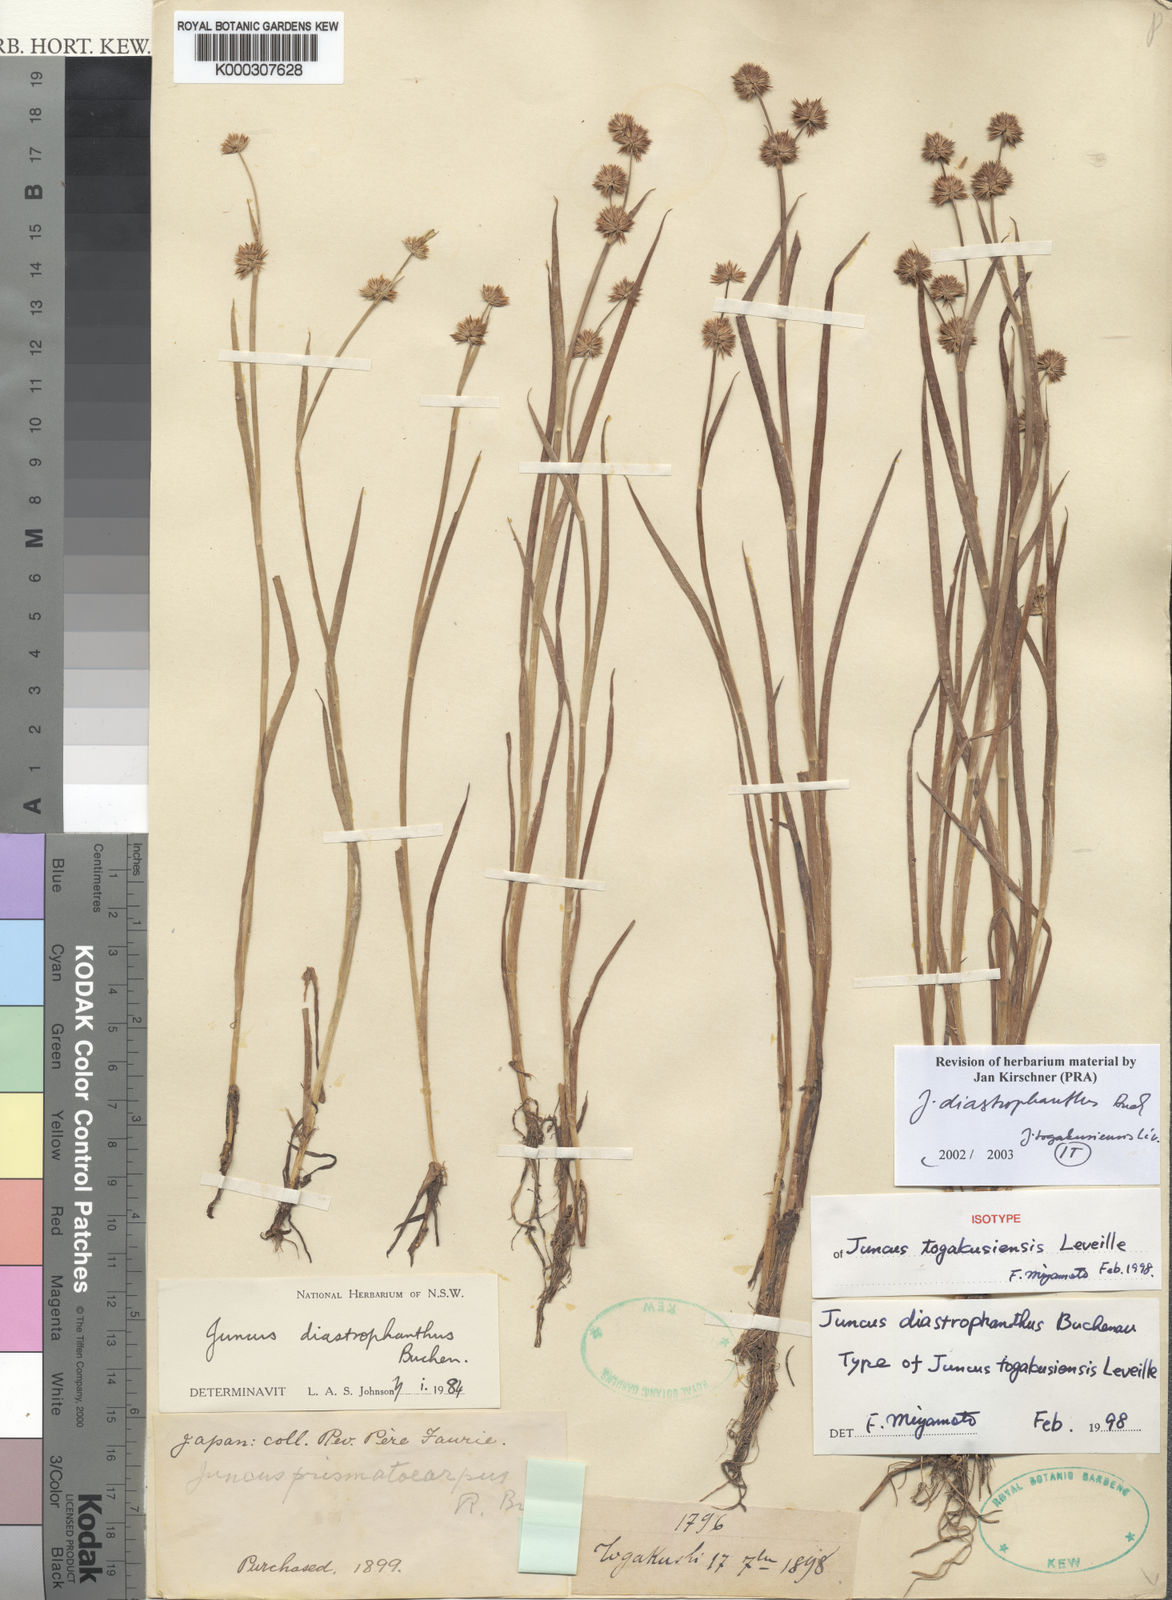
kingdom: Plantae
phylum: Tracheophyta
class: Liliopsida
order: Poales
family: Juncaceae
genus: Juncus
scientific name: Juncus diastrophanthus
